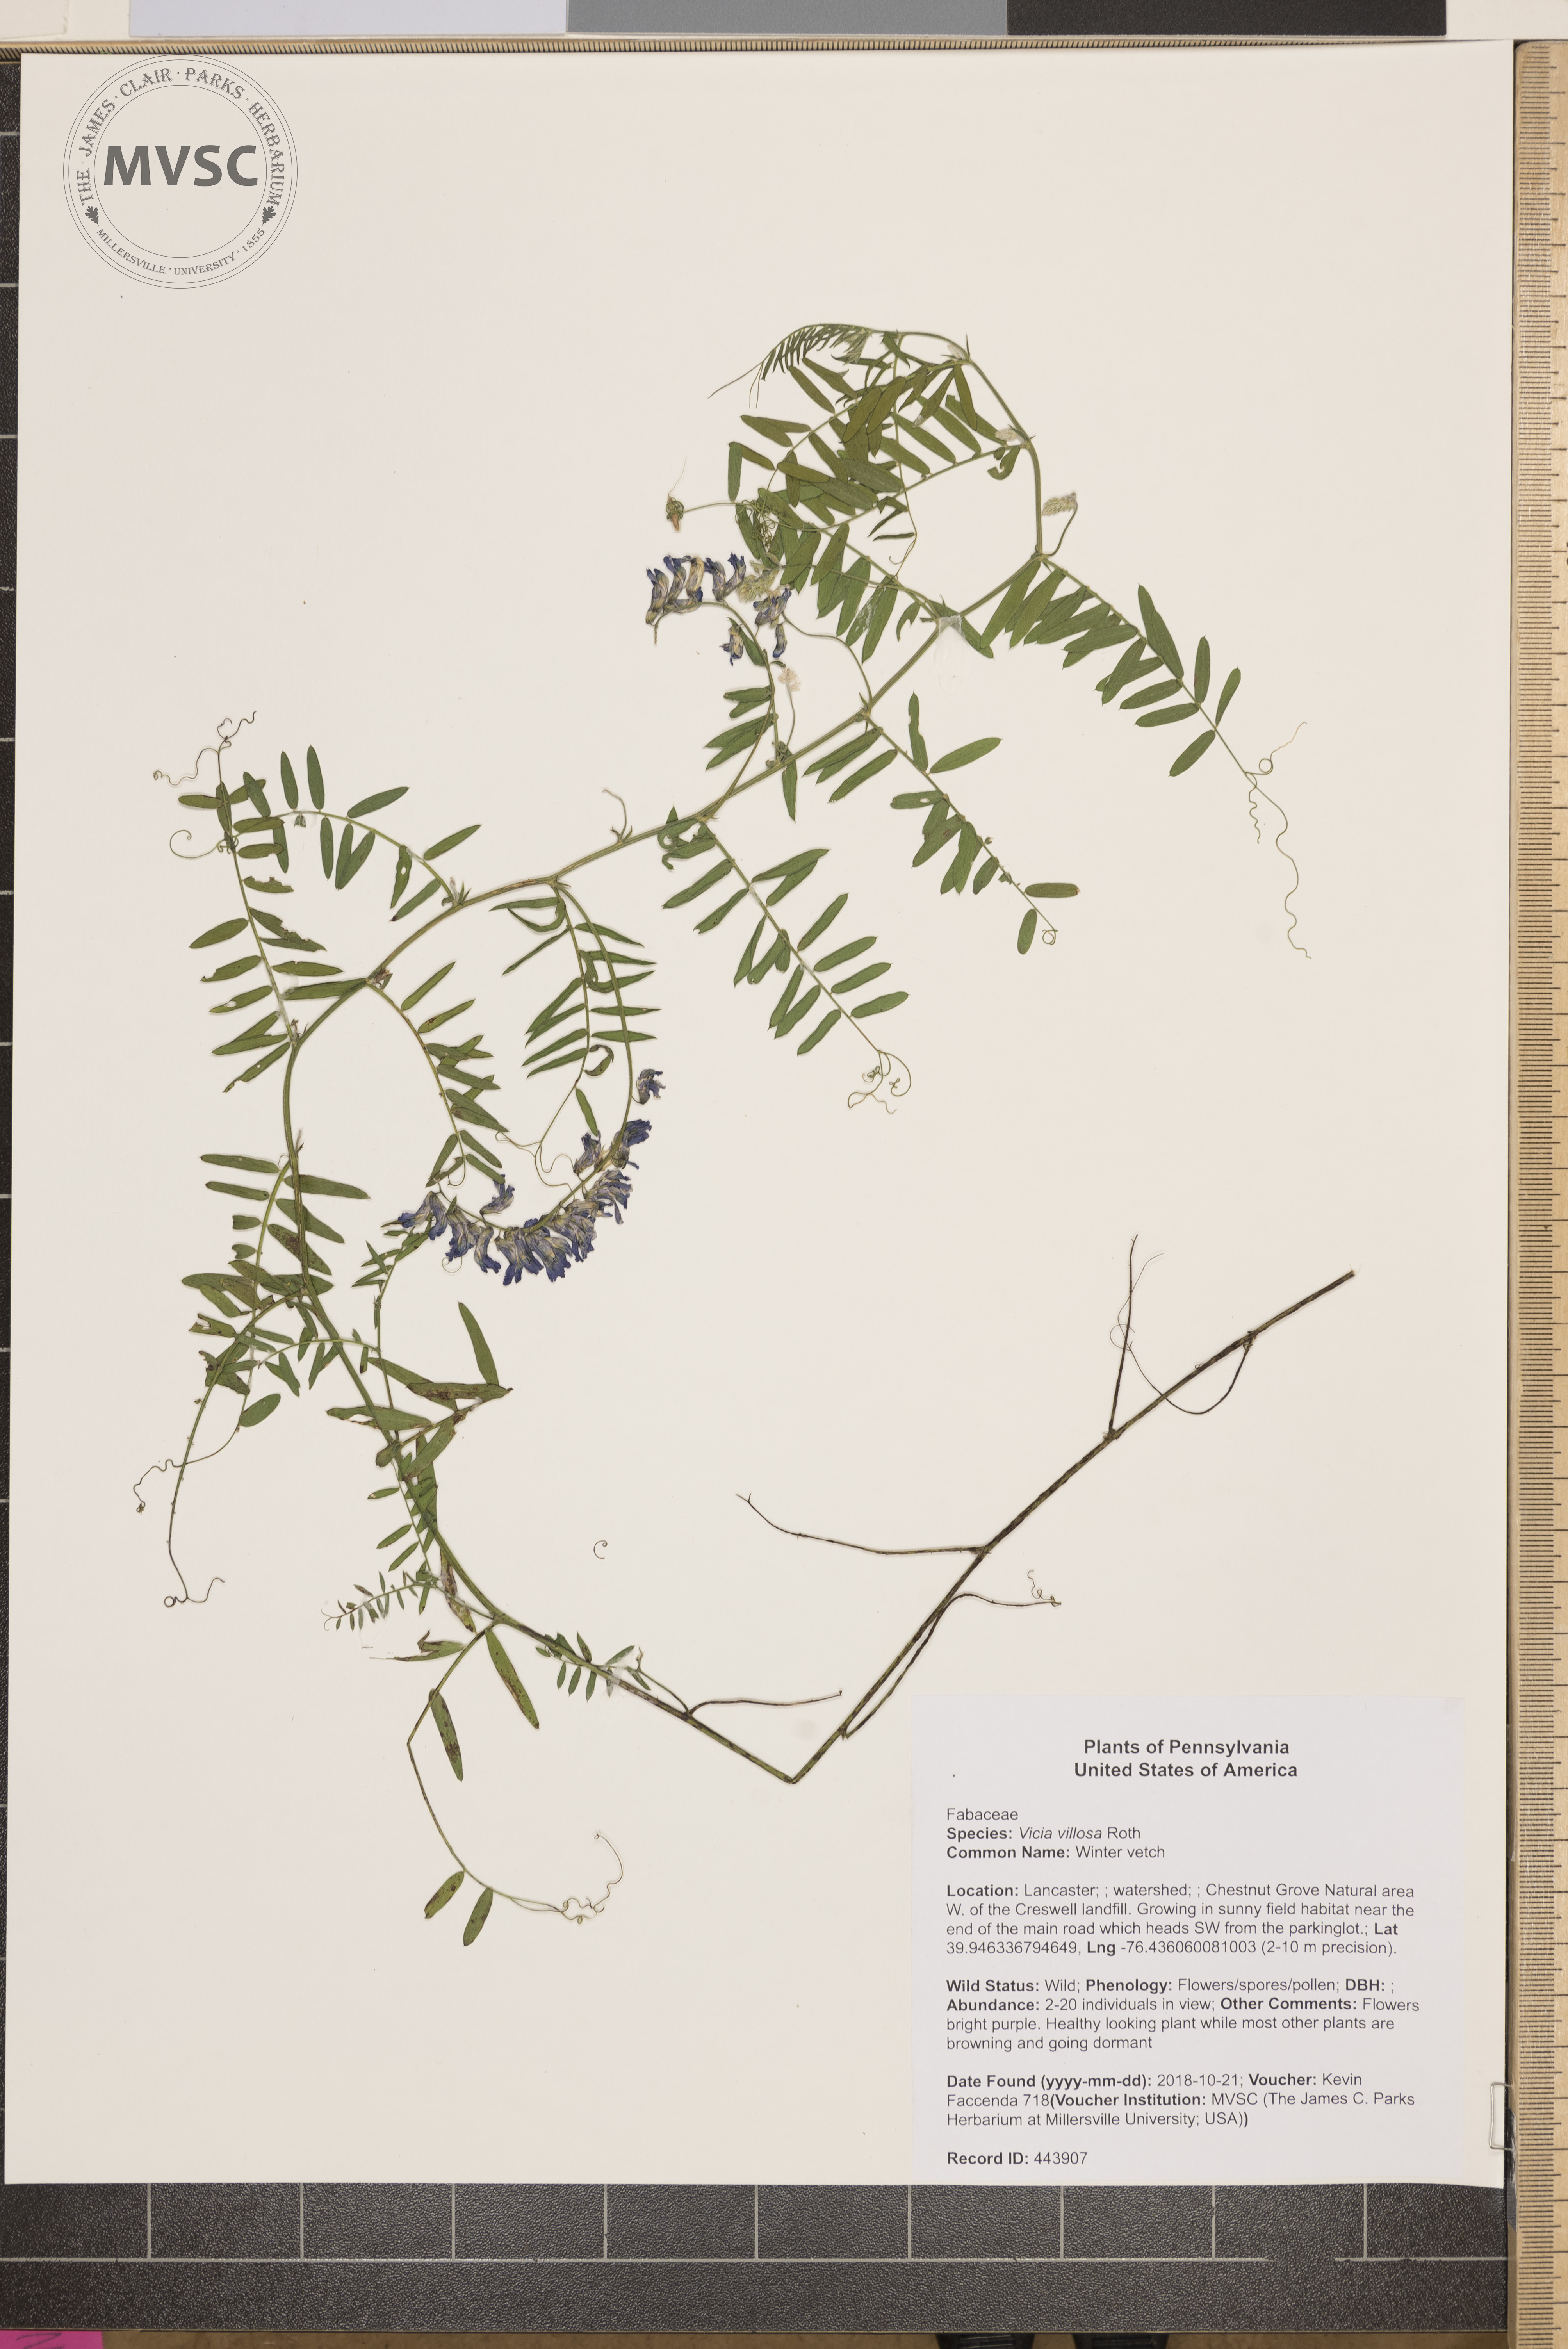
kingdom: Plantae
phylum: Tracheophyta
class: Magnoliopsida
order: Fabales
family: Fabaceae
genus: Vicia
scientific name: Vicia villosa
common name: Winter vetch
